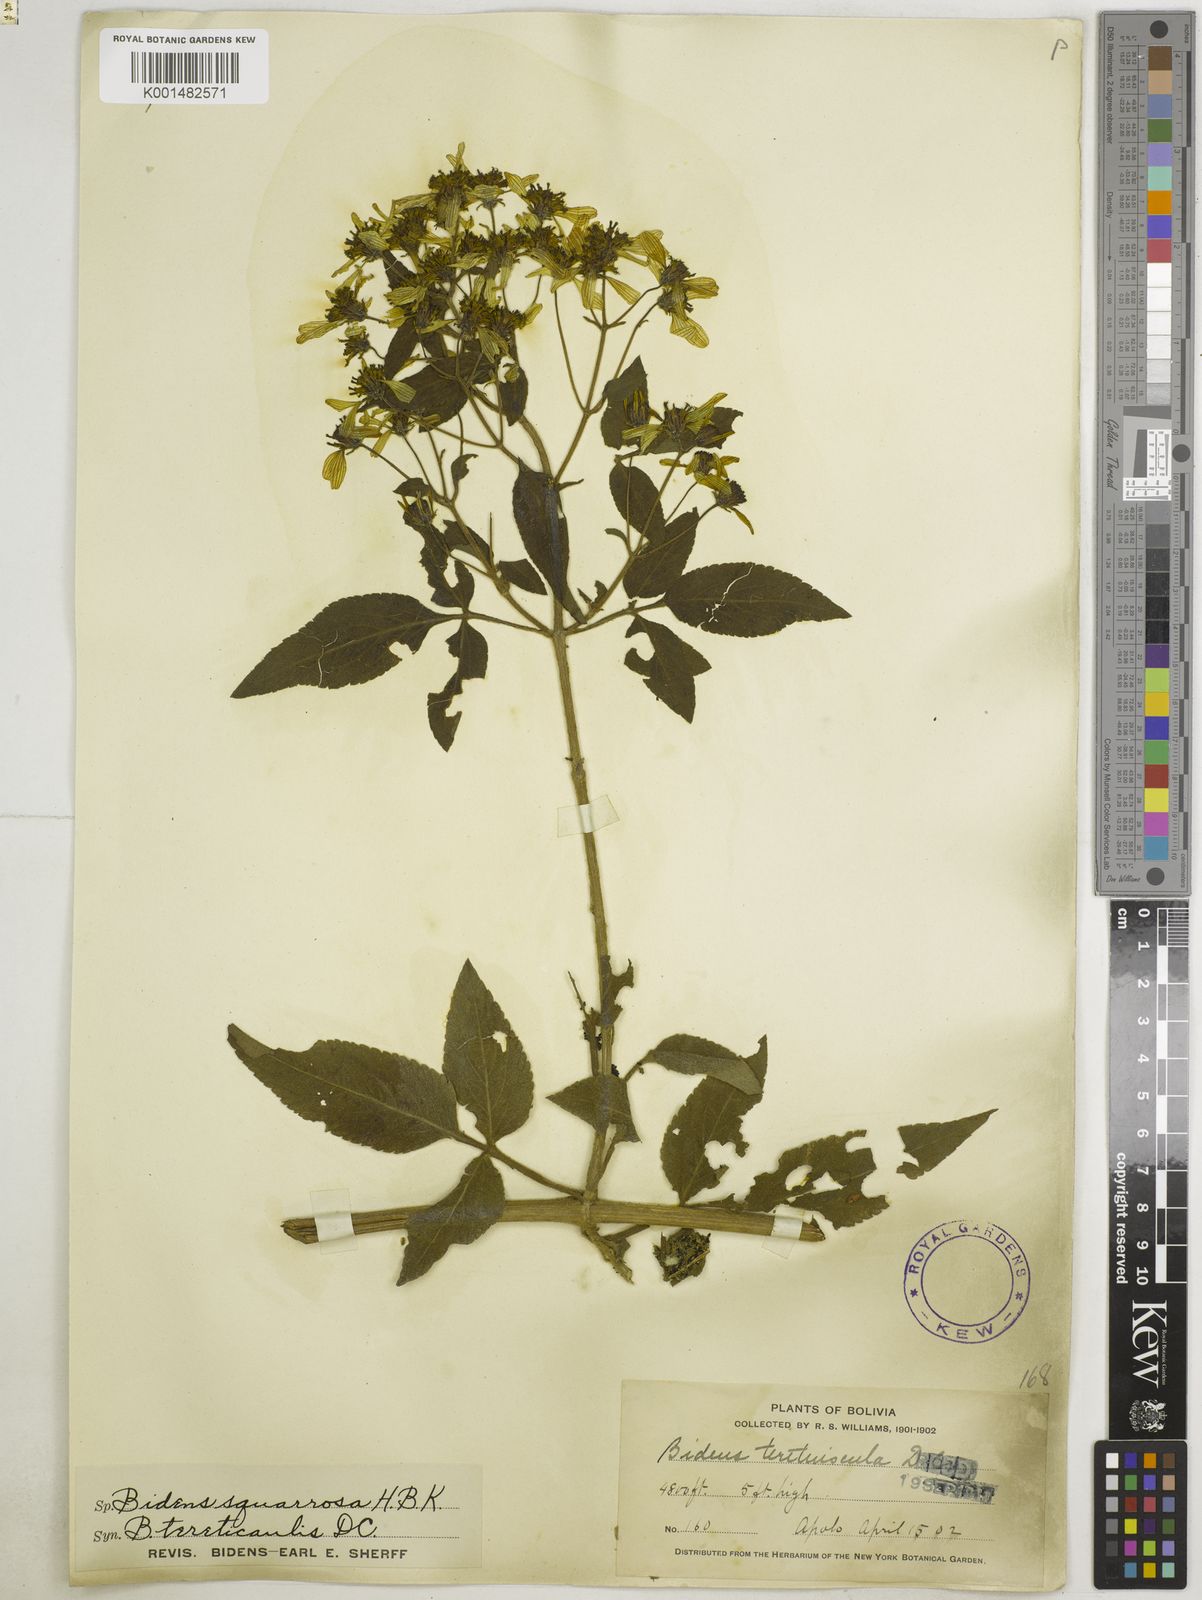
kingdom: Plantae
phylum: Tracheophyta
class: Magnoliopsida
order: Asterales
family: Asteraceae
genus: Bidens
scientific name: Bidens rubicundula
